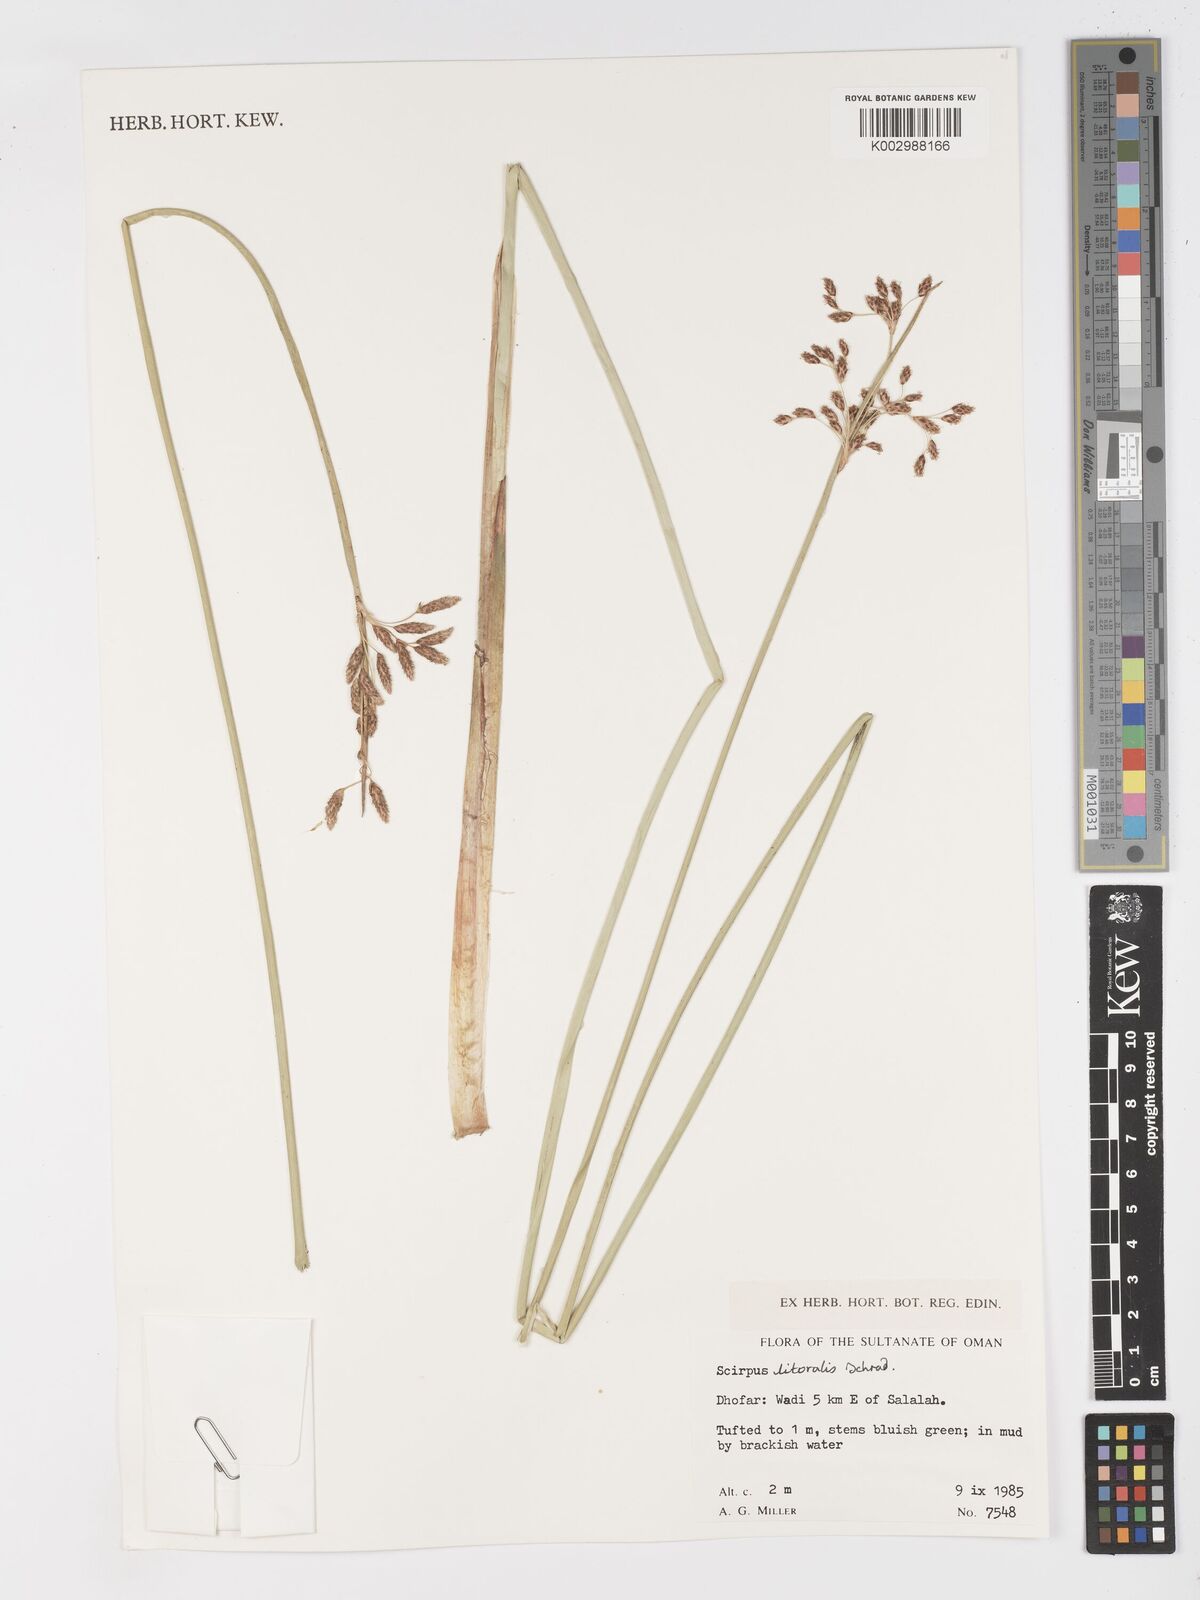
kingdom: Plantae
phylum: Tracheophyta
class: Liliopsida
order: Poales
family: Cyperaceae
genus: Schoenoplectus
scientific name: Schoenoplectus litoralis
